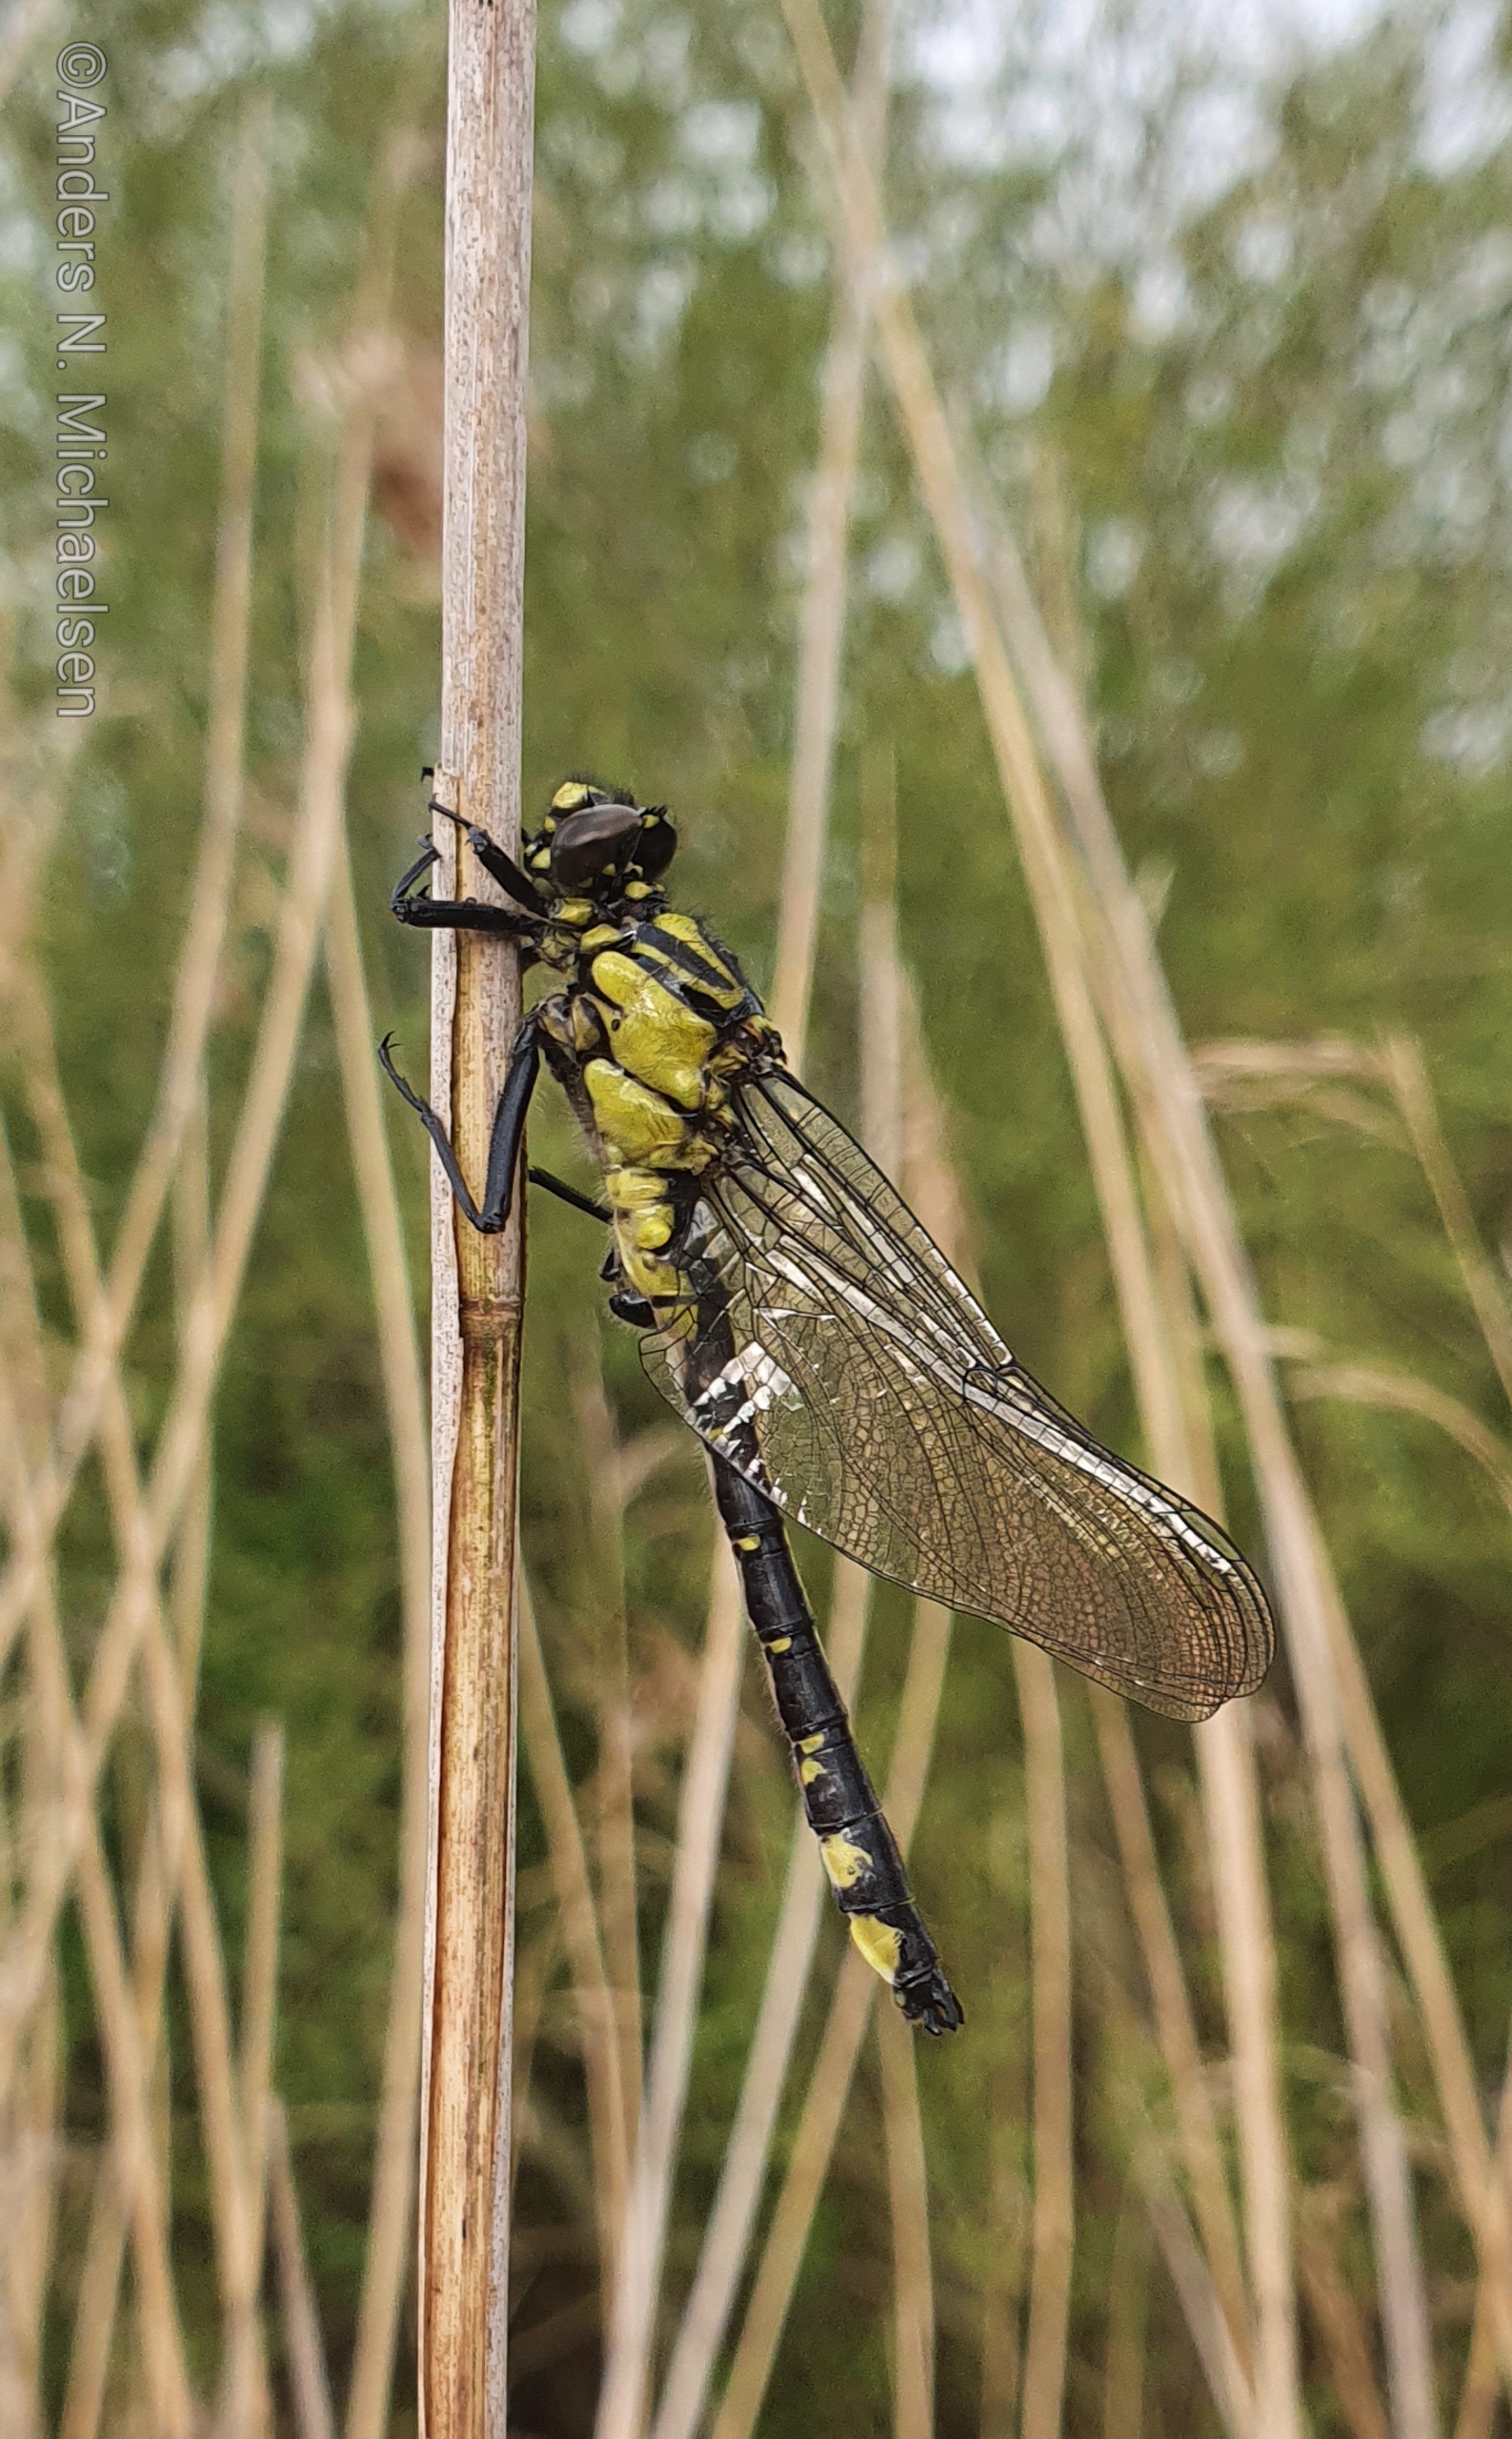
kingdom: Animalia
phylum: Arthropoda
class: Insecta
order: Odonata
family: Gomphidae
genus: Gomphus
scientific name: Gomphus vulgatissimus
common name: Almindelig flodguldsmed
